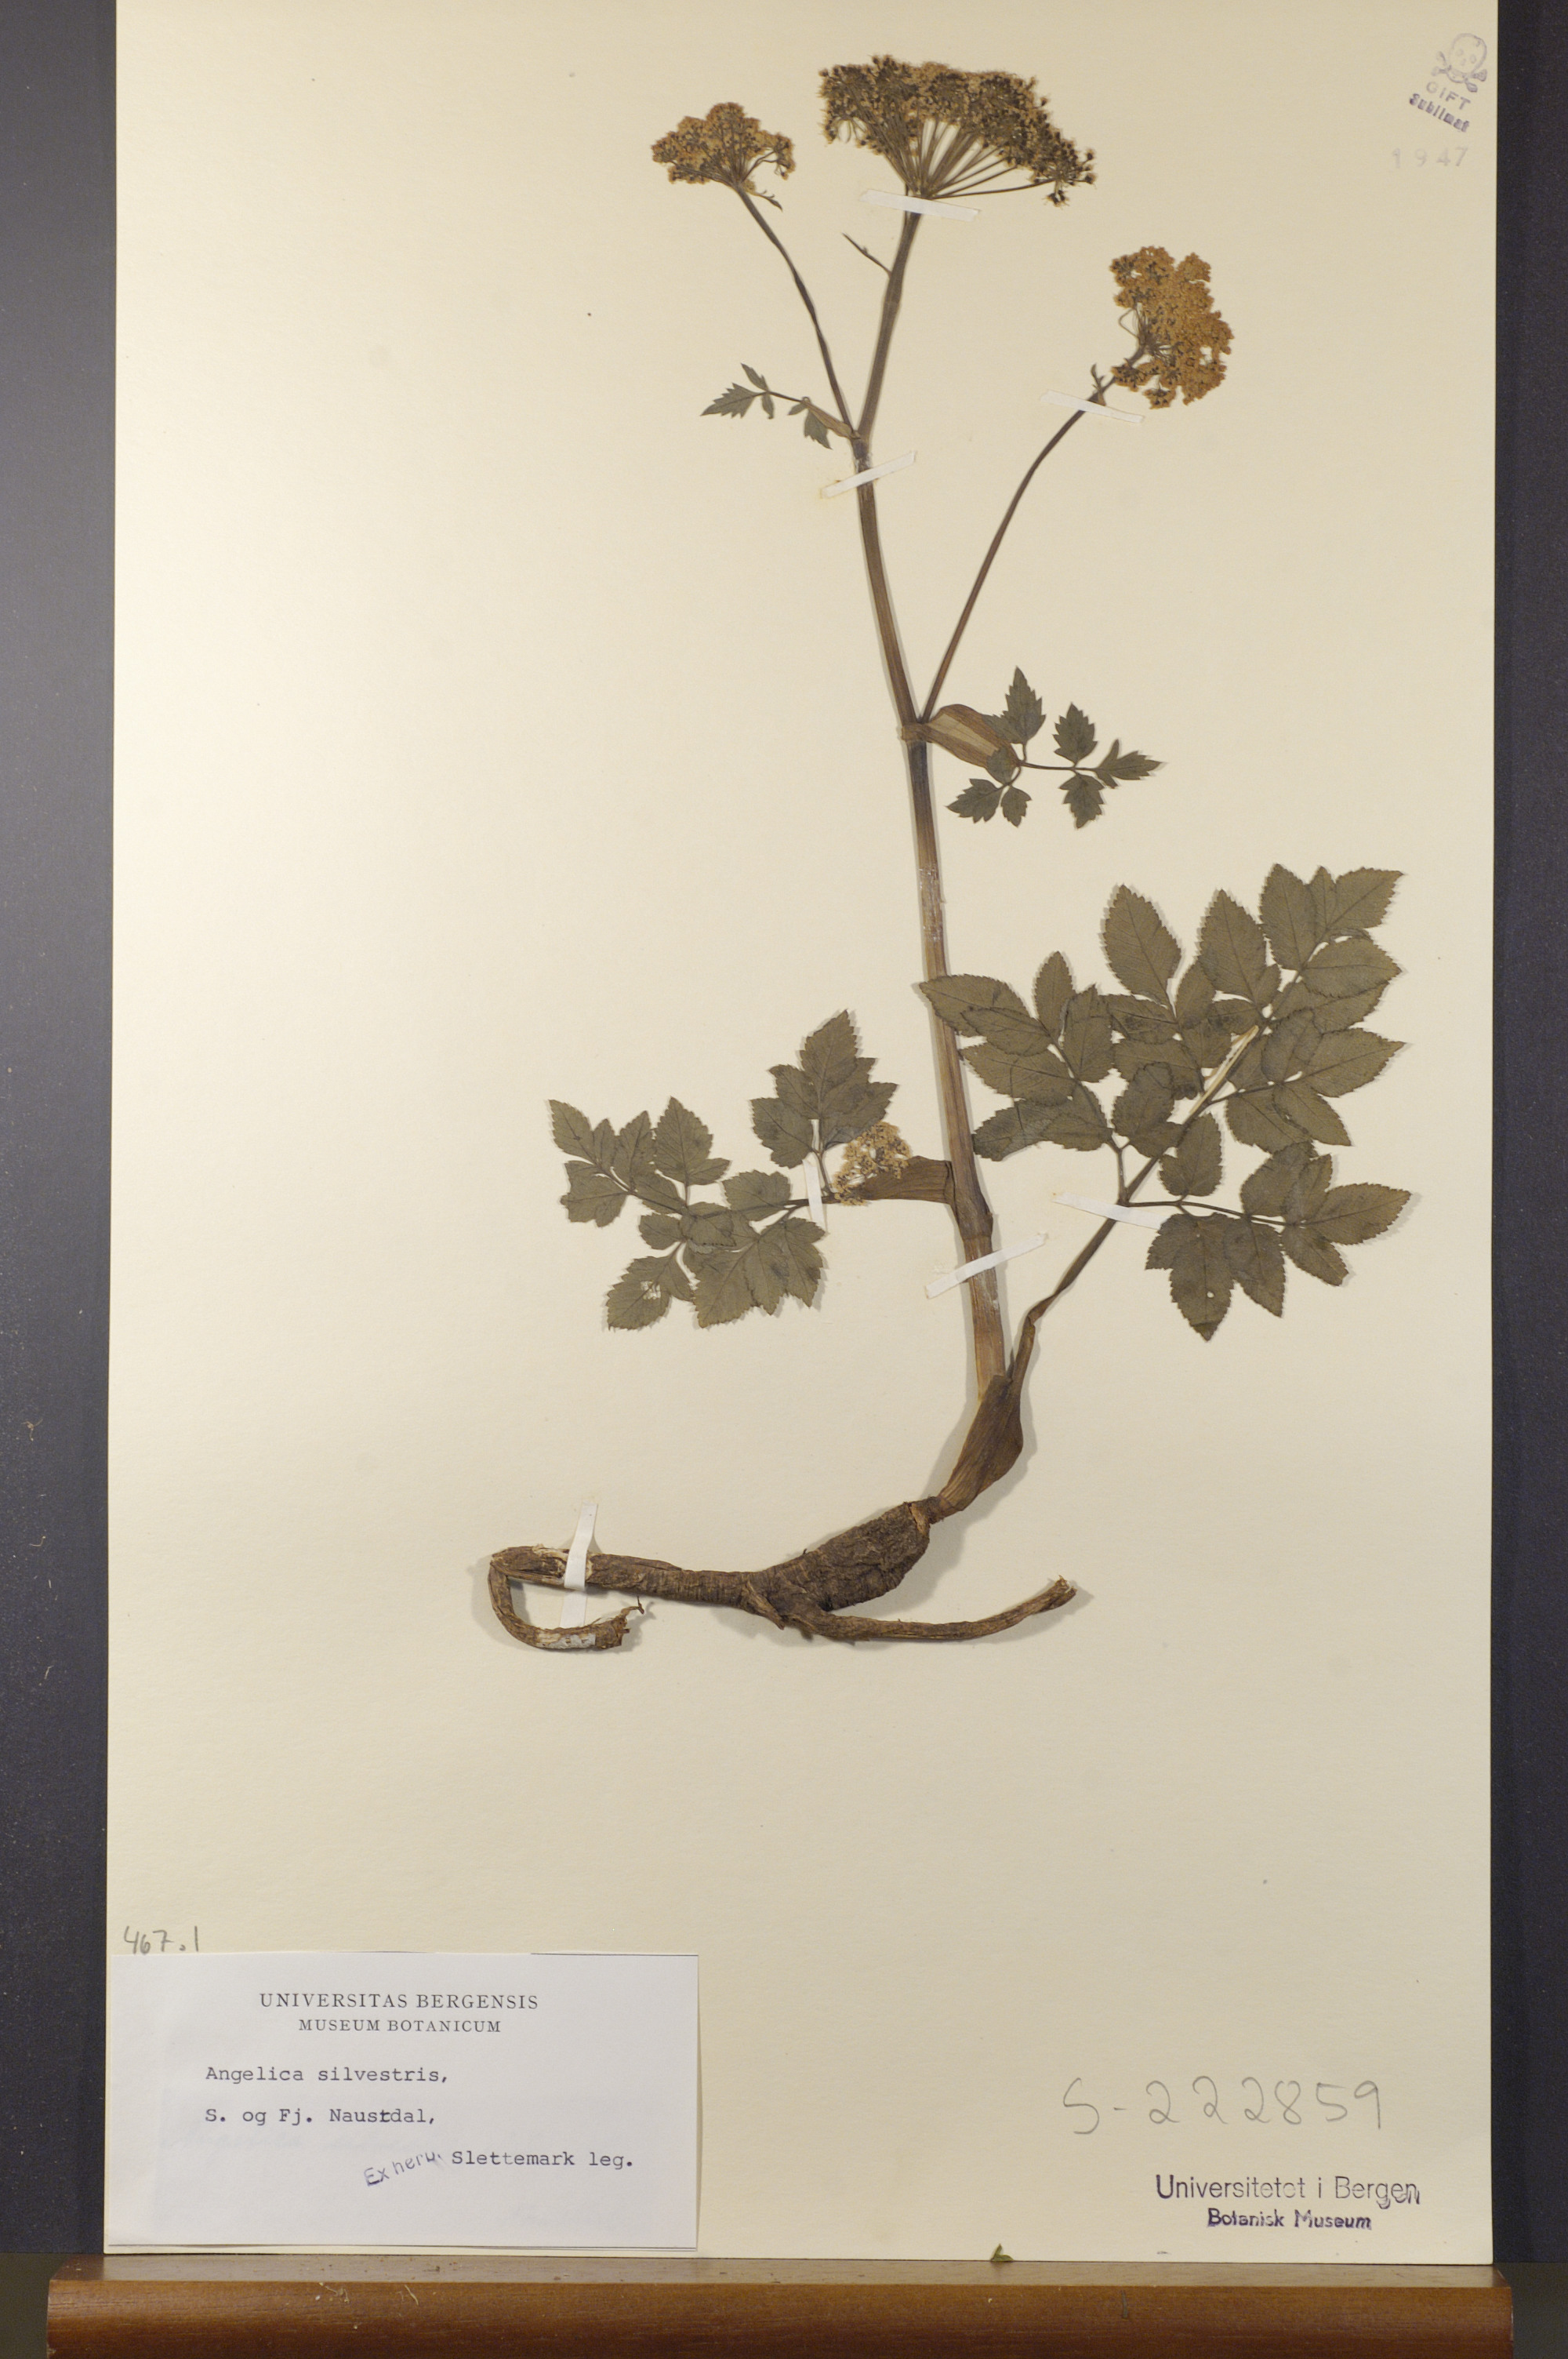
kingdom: Plantae
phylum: Tracheophyta
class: Magnoliopsida
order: Apiales
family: Apiaceae
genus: Angelica
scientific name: Angelica sylvestris
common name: Wild angelica
